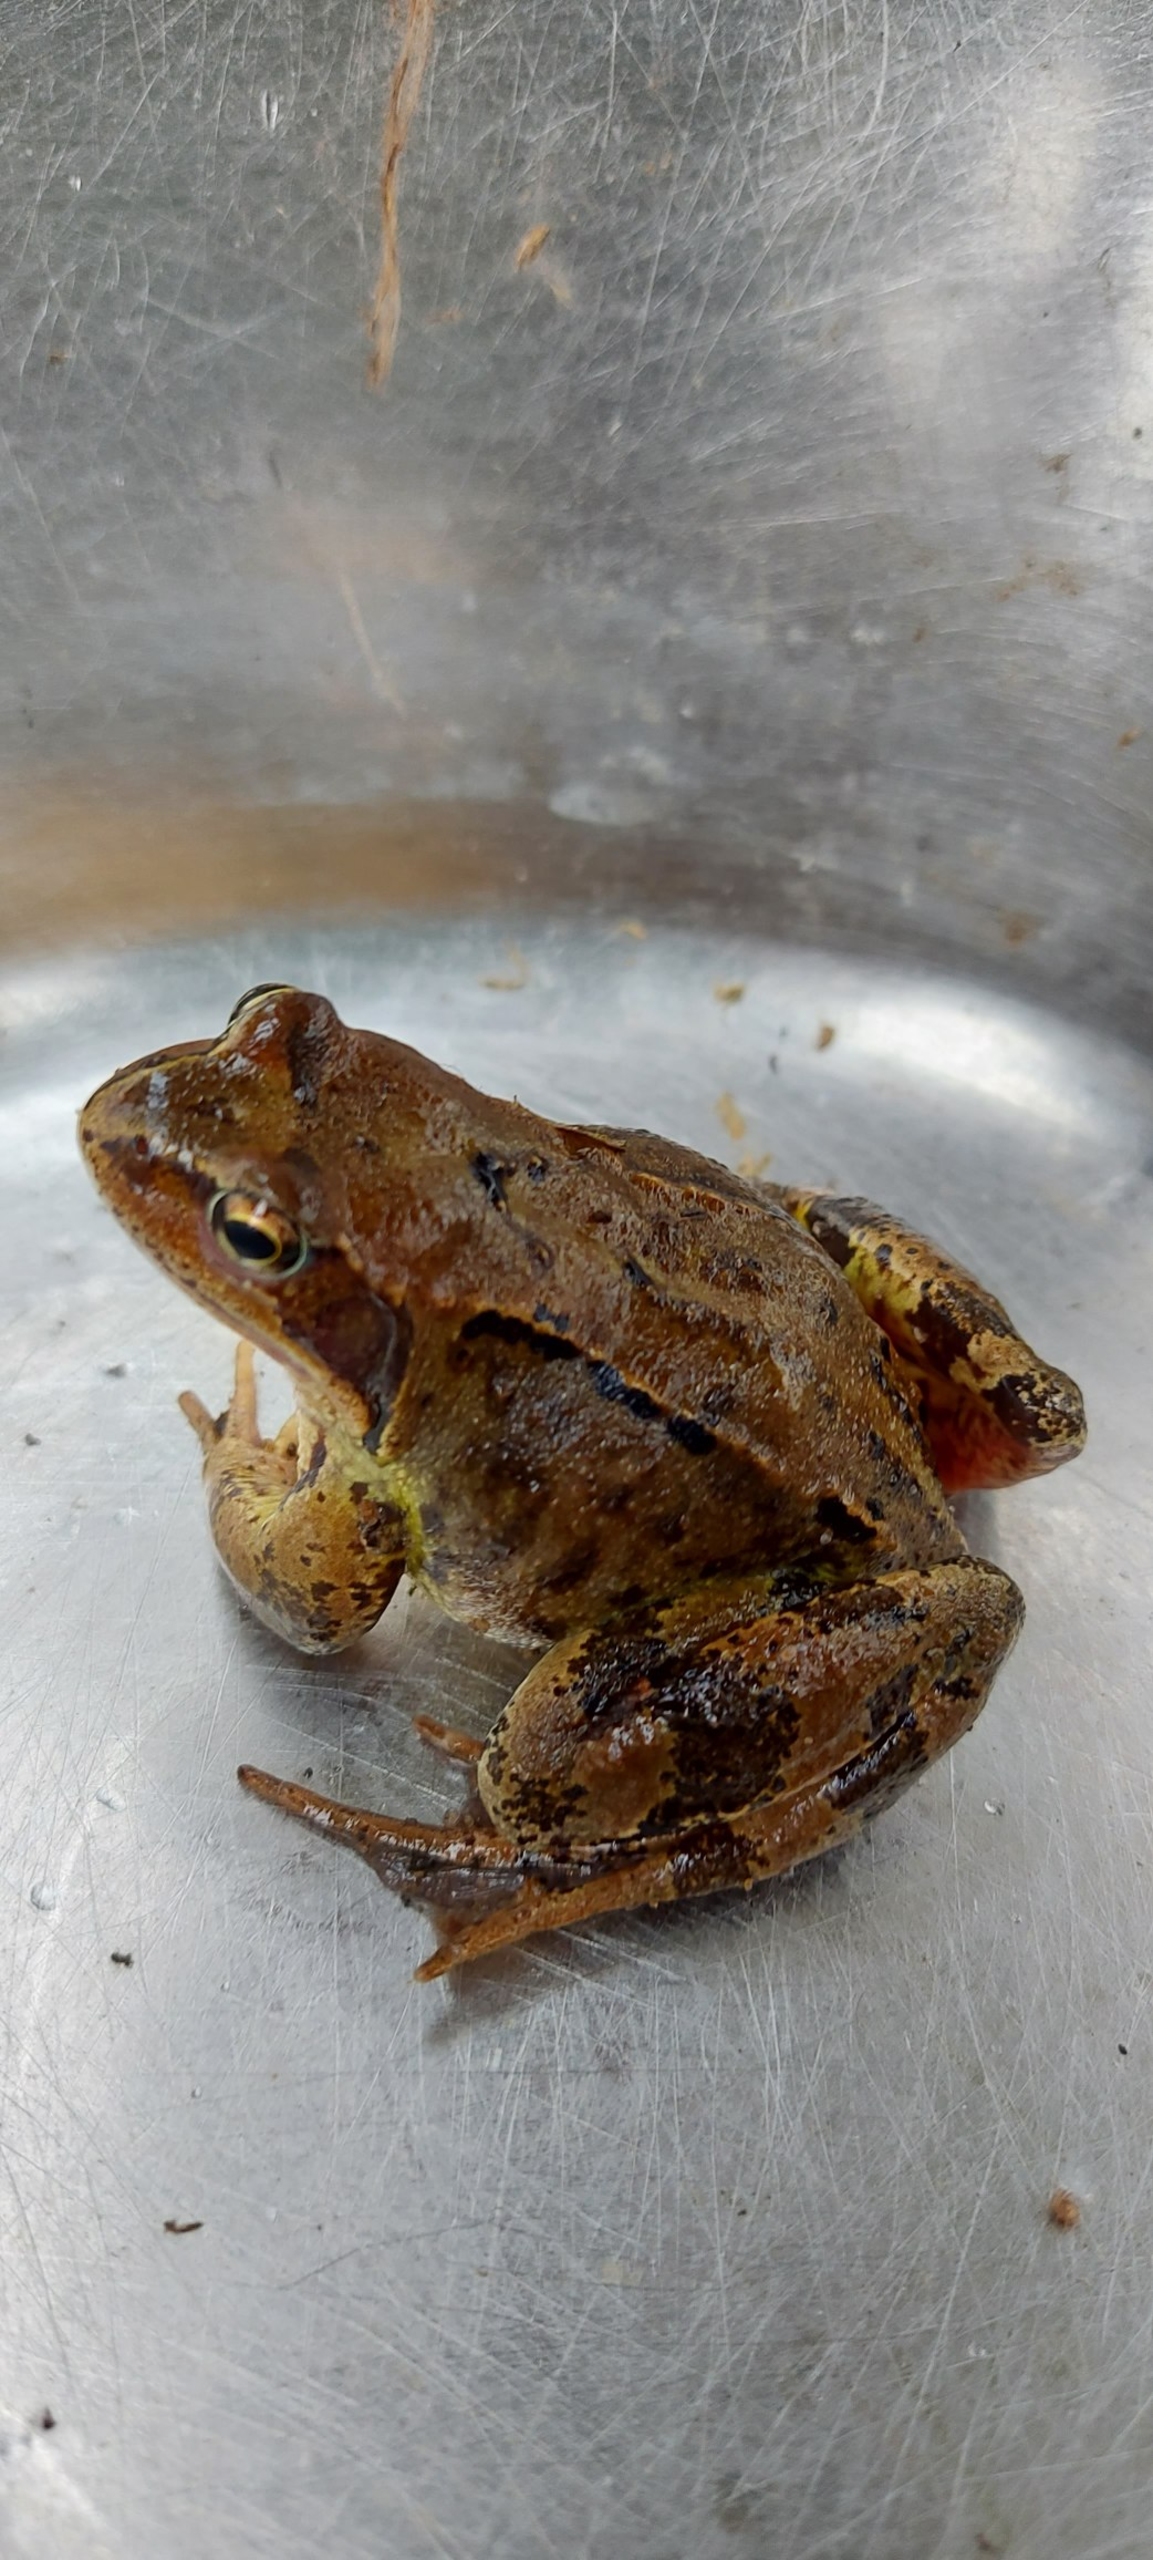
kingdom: Animalia
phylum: Chordata
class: Amphibia
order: Anura
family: Ranidae
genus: Rana
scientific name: Rana temporaria
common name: Butsnudet frø
